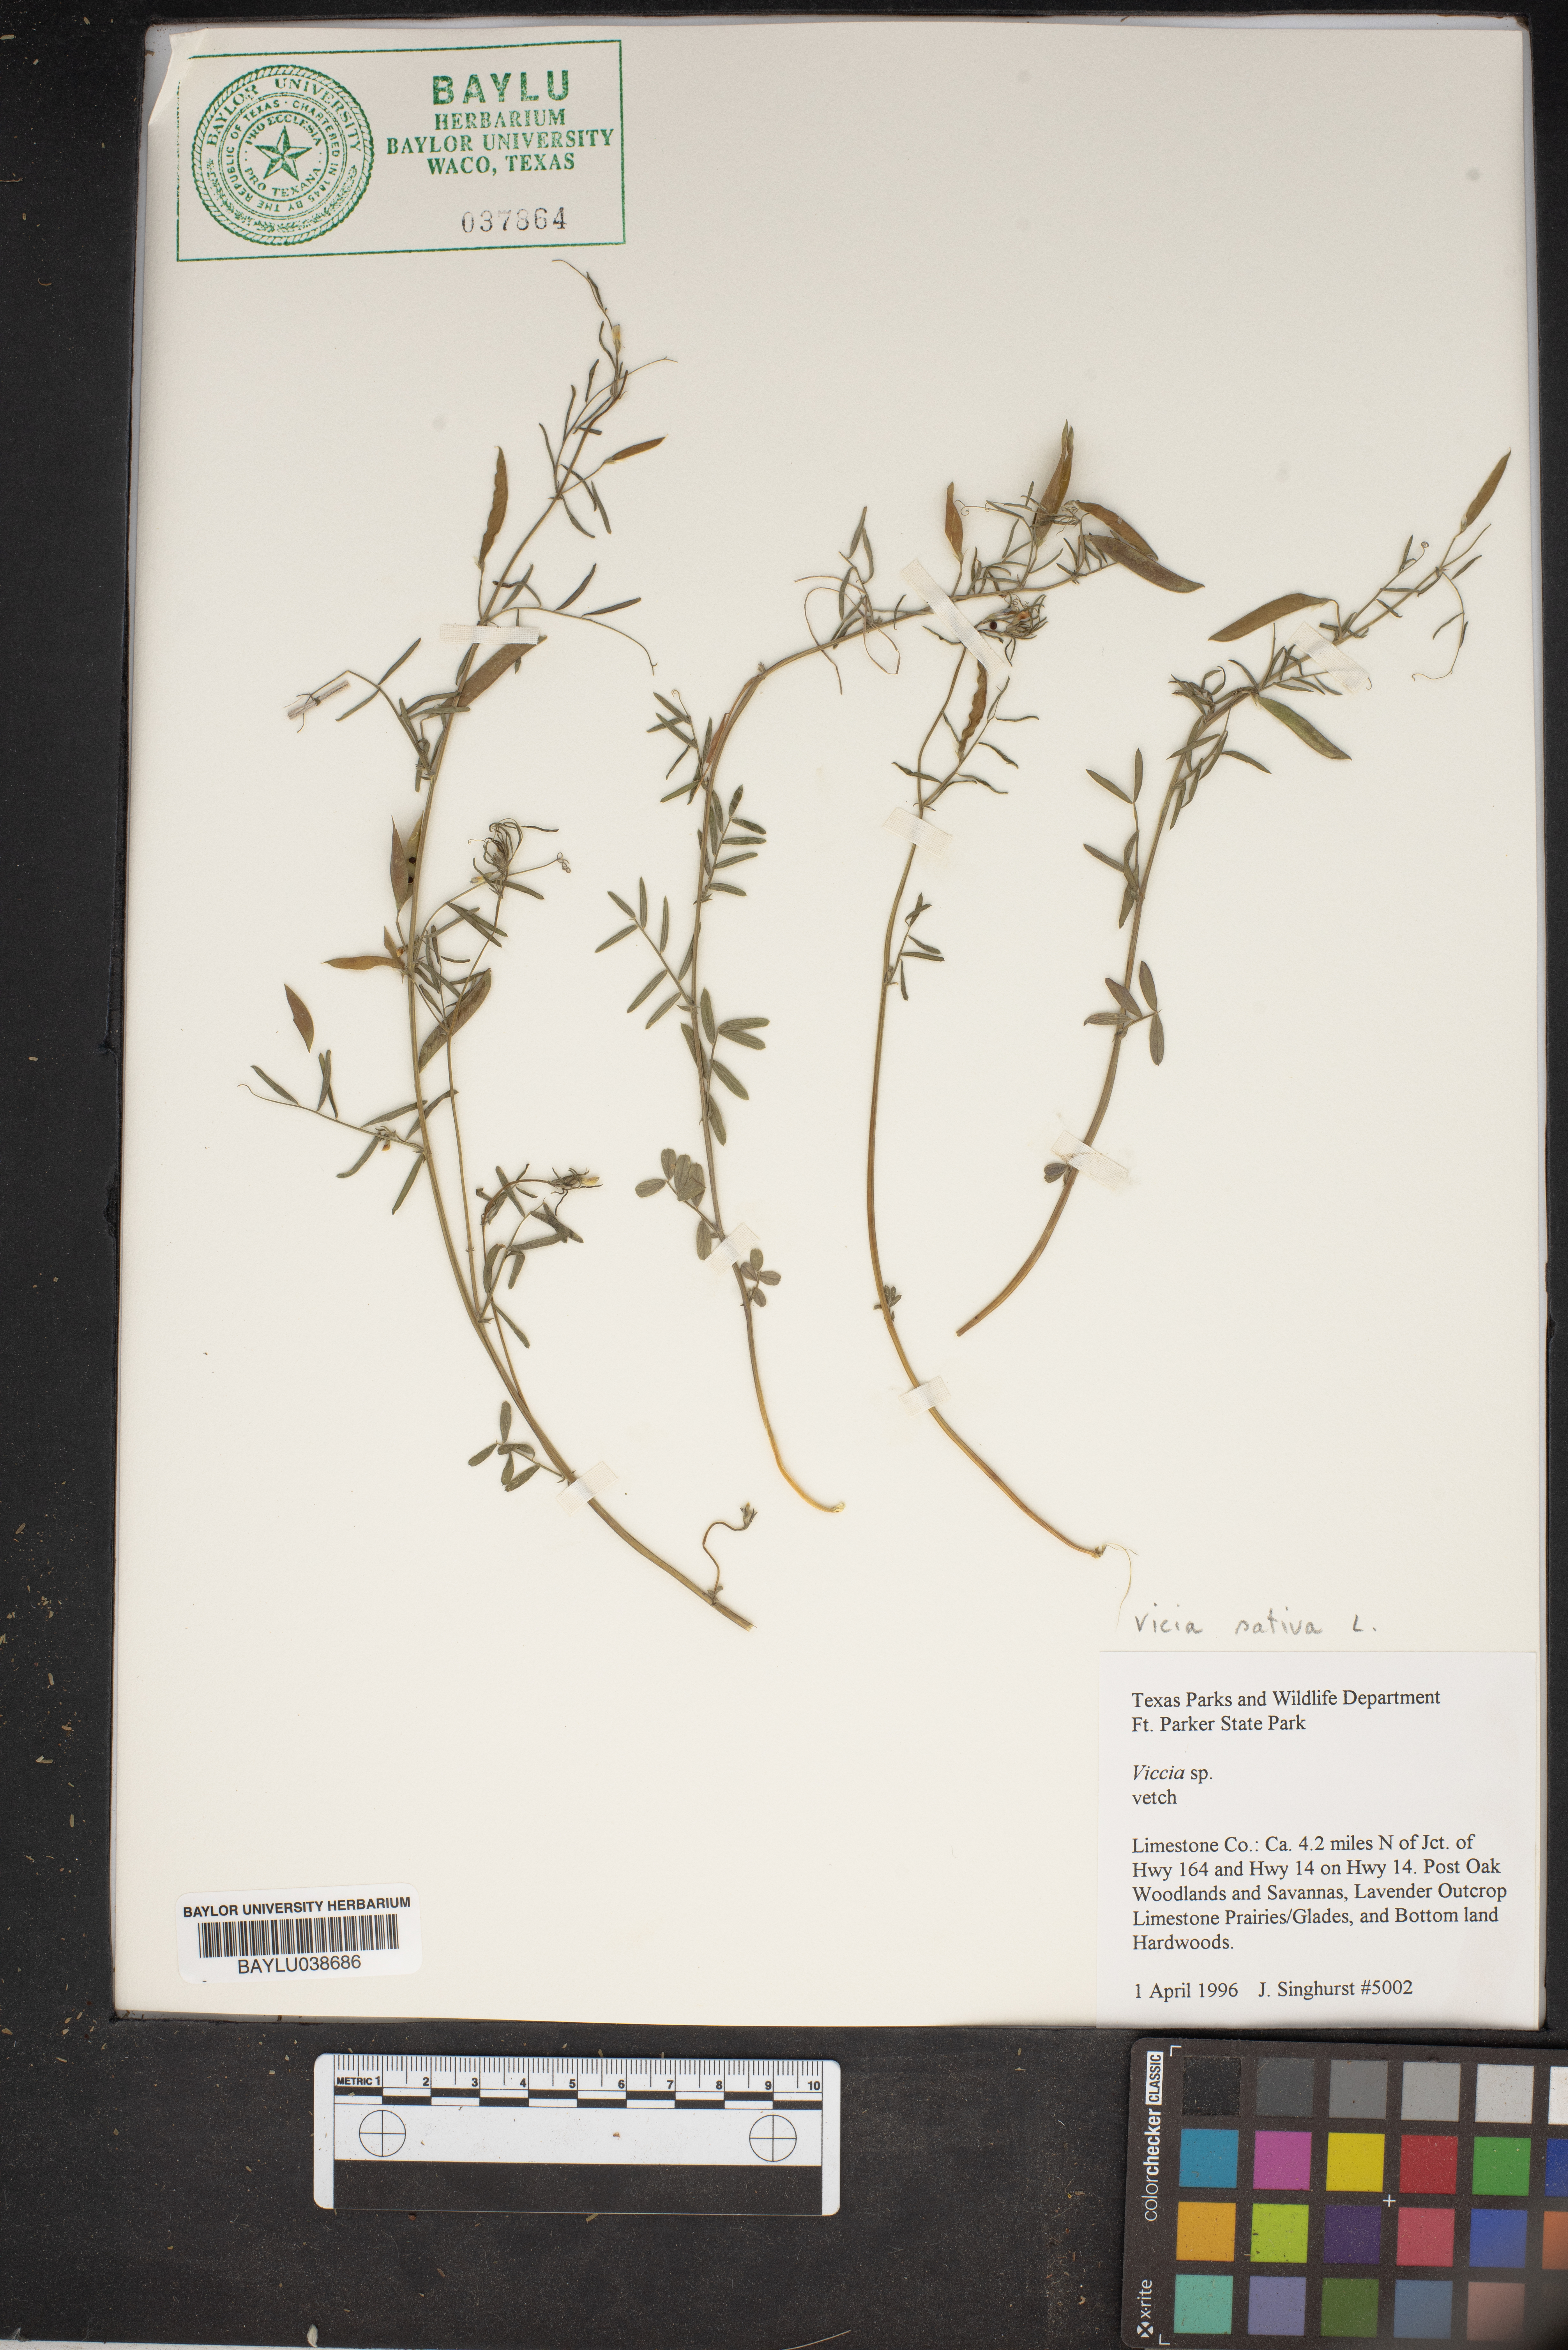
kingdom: Plantae
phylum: Tracheophyta
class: Magnoliopsida
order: Fabales
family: Fabaceae
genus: Vicia
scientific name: Vicia sativa
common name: Garden vetch
